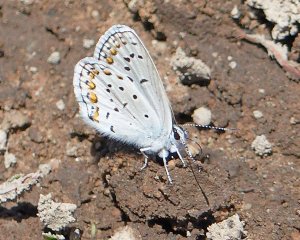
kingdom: Animalia
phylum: Arthropoda
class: Insecta
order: Lepidoptera
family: Lycaenidae
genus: Lycaeides
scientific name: Lycaeides melissa
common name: Melissa Blue
